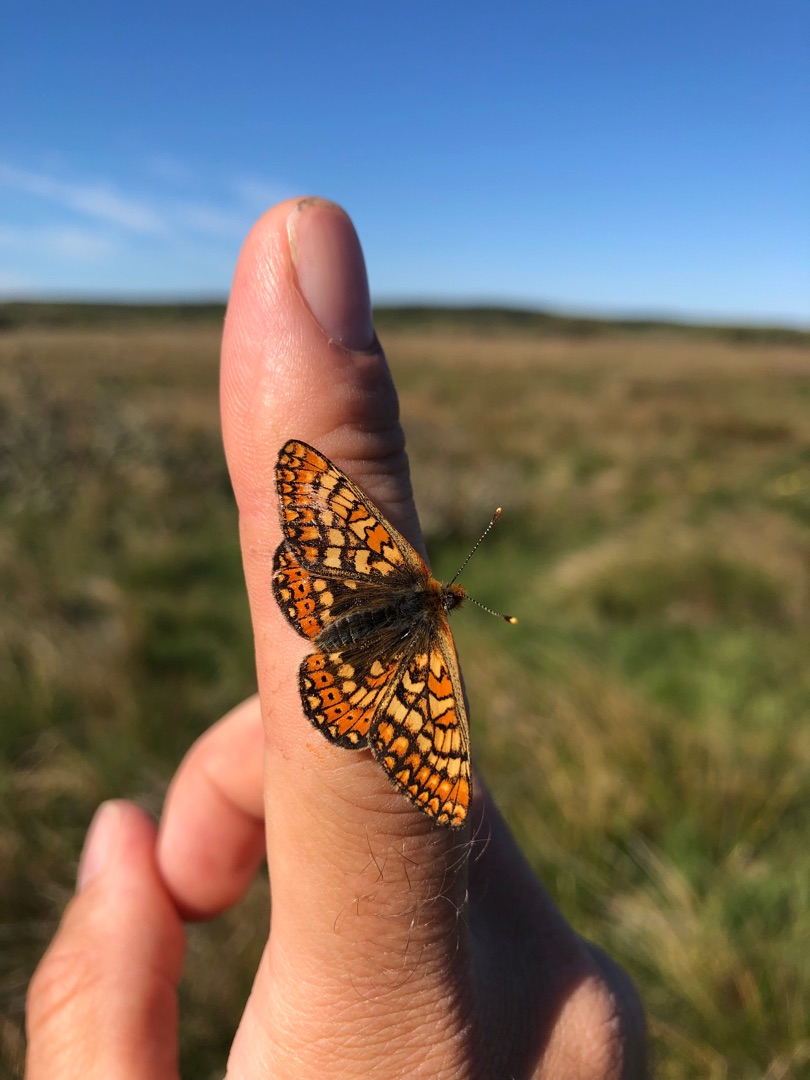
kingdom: Animalia
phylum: Arthropoda
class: Insecta
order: Lepidoptera
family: Nymphalidae
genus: Euphydryas
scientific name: Euphydryas aurinia
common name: Hedepletvinge
